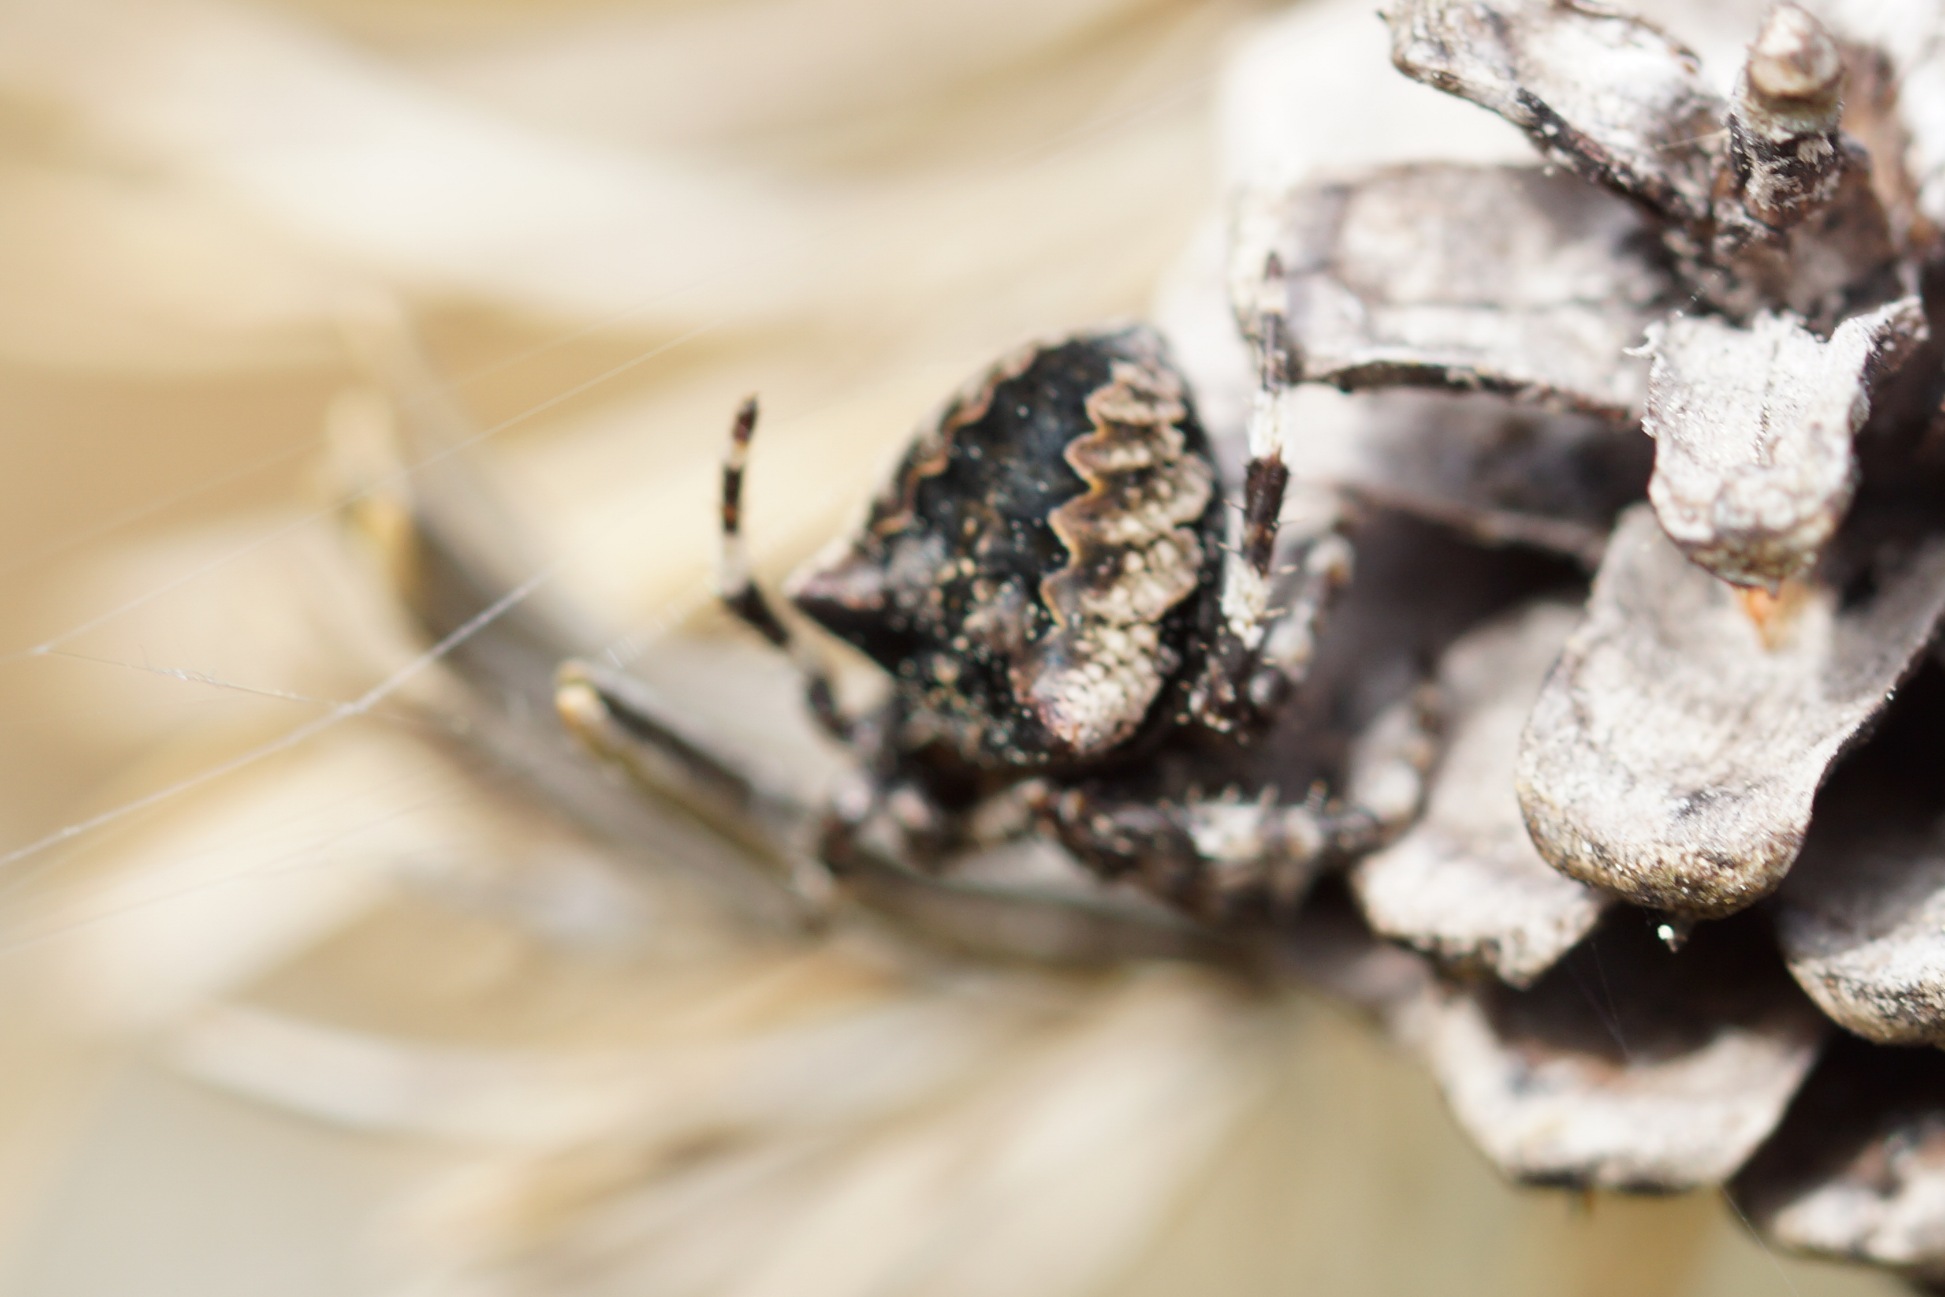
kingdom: Animalia
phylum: Arthropoda
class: Arachnida
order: Araneae
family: Araneidae
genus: Araneus
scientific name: Araneus angulatus
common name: Stor pukkelhjulspinder
